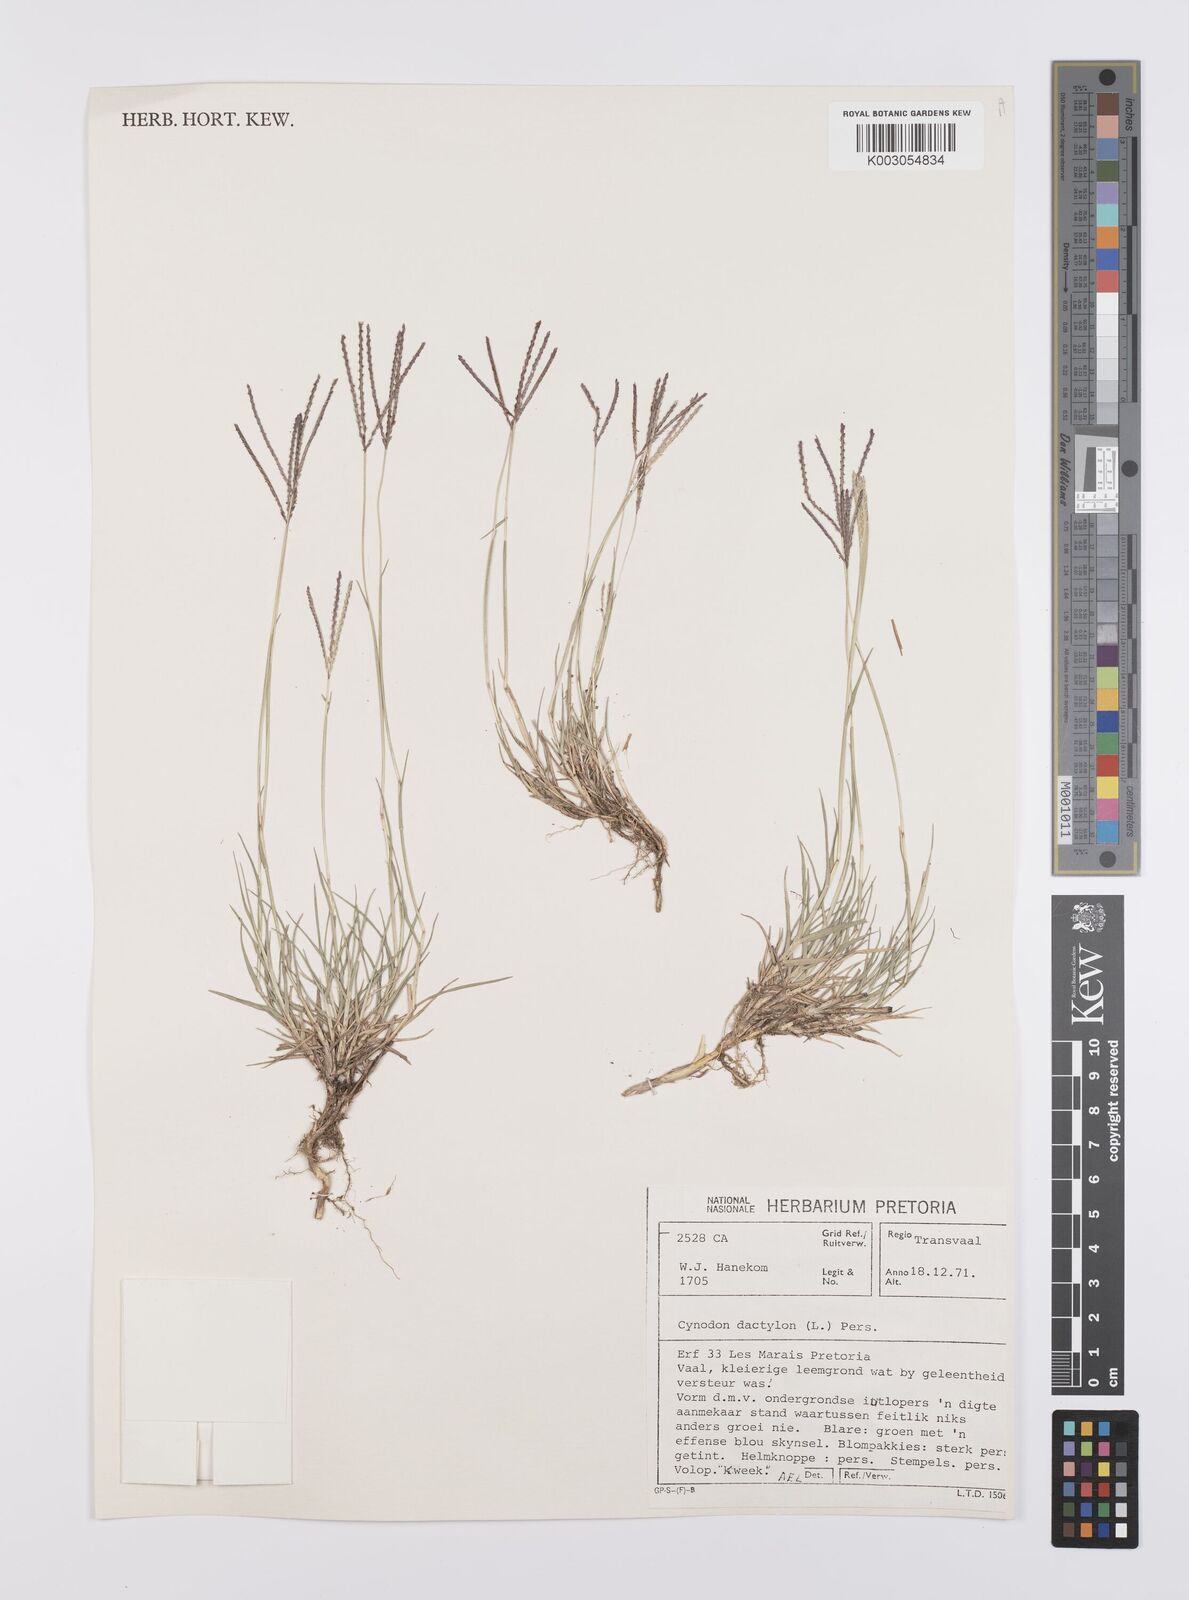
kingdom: Plantae
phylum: Tracheophyta
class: Liliopsida
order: Poales
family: Poaceae
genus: Cynodon
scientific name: Cynodon dactylon
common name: Bermuda grass
